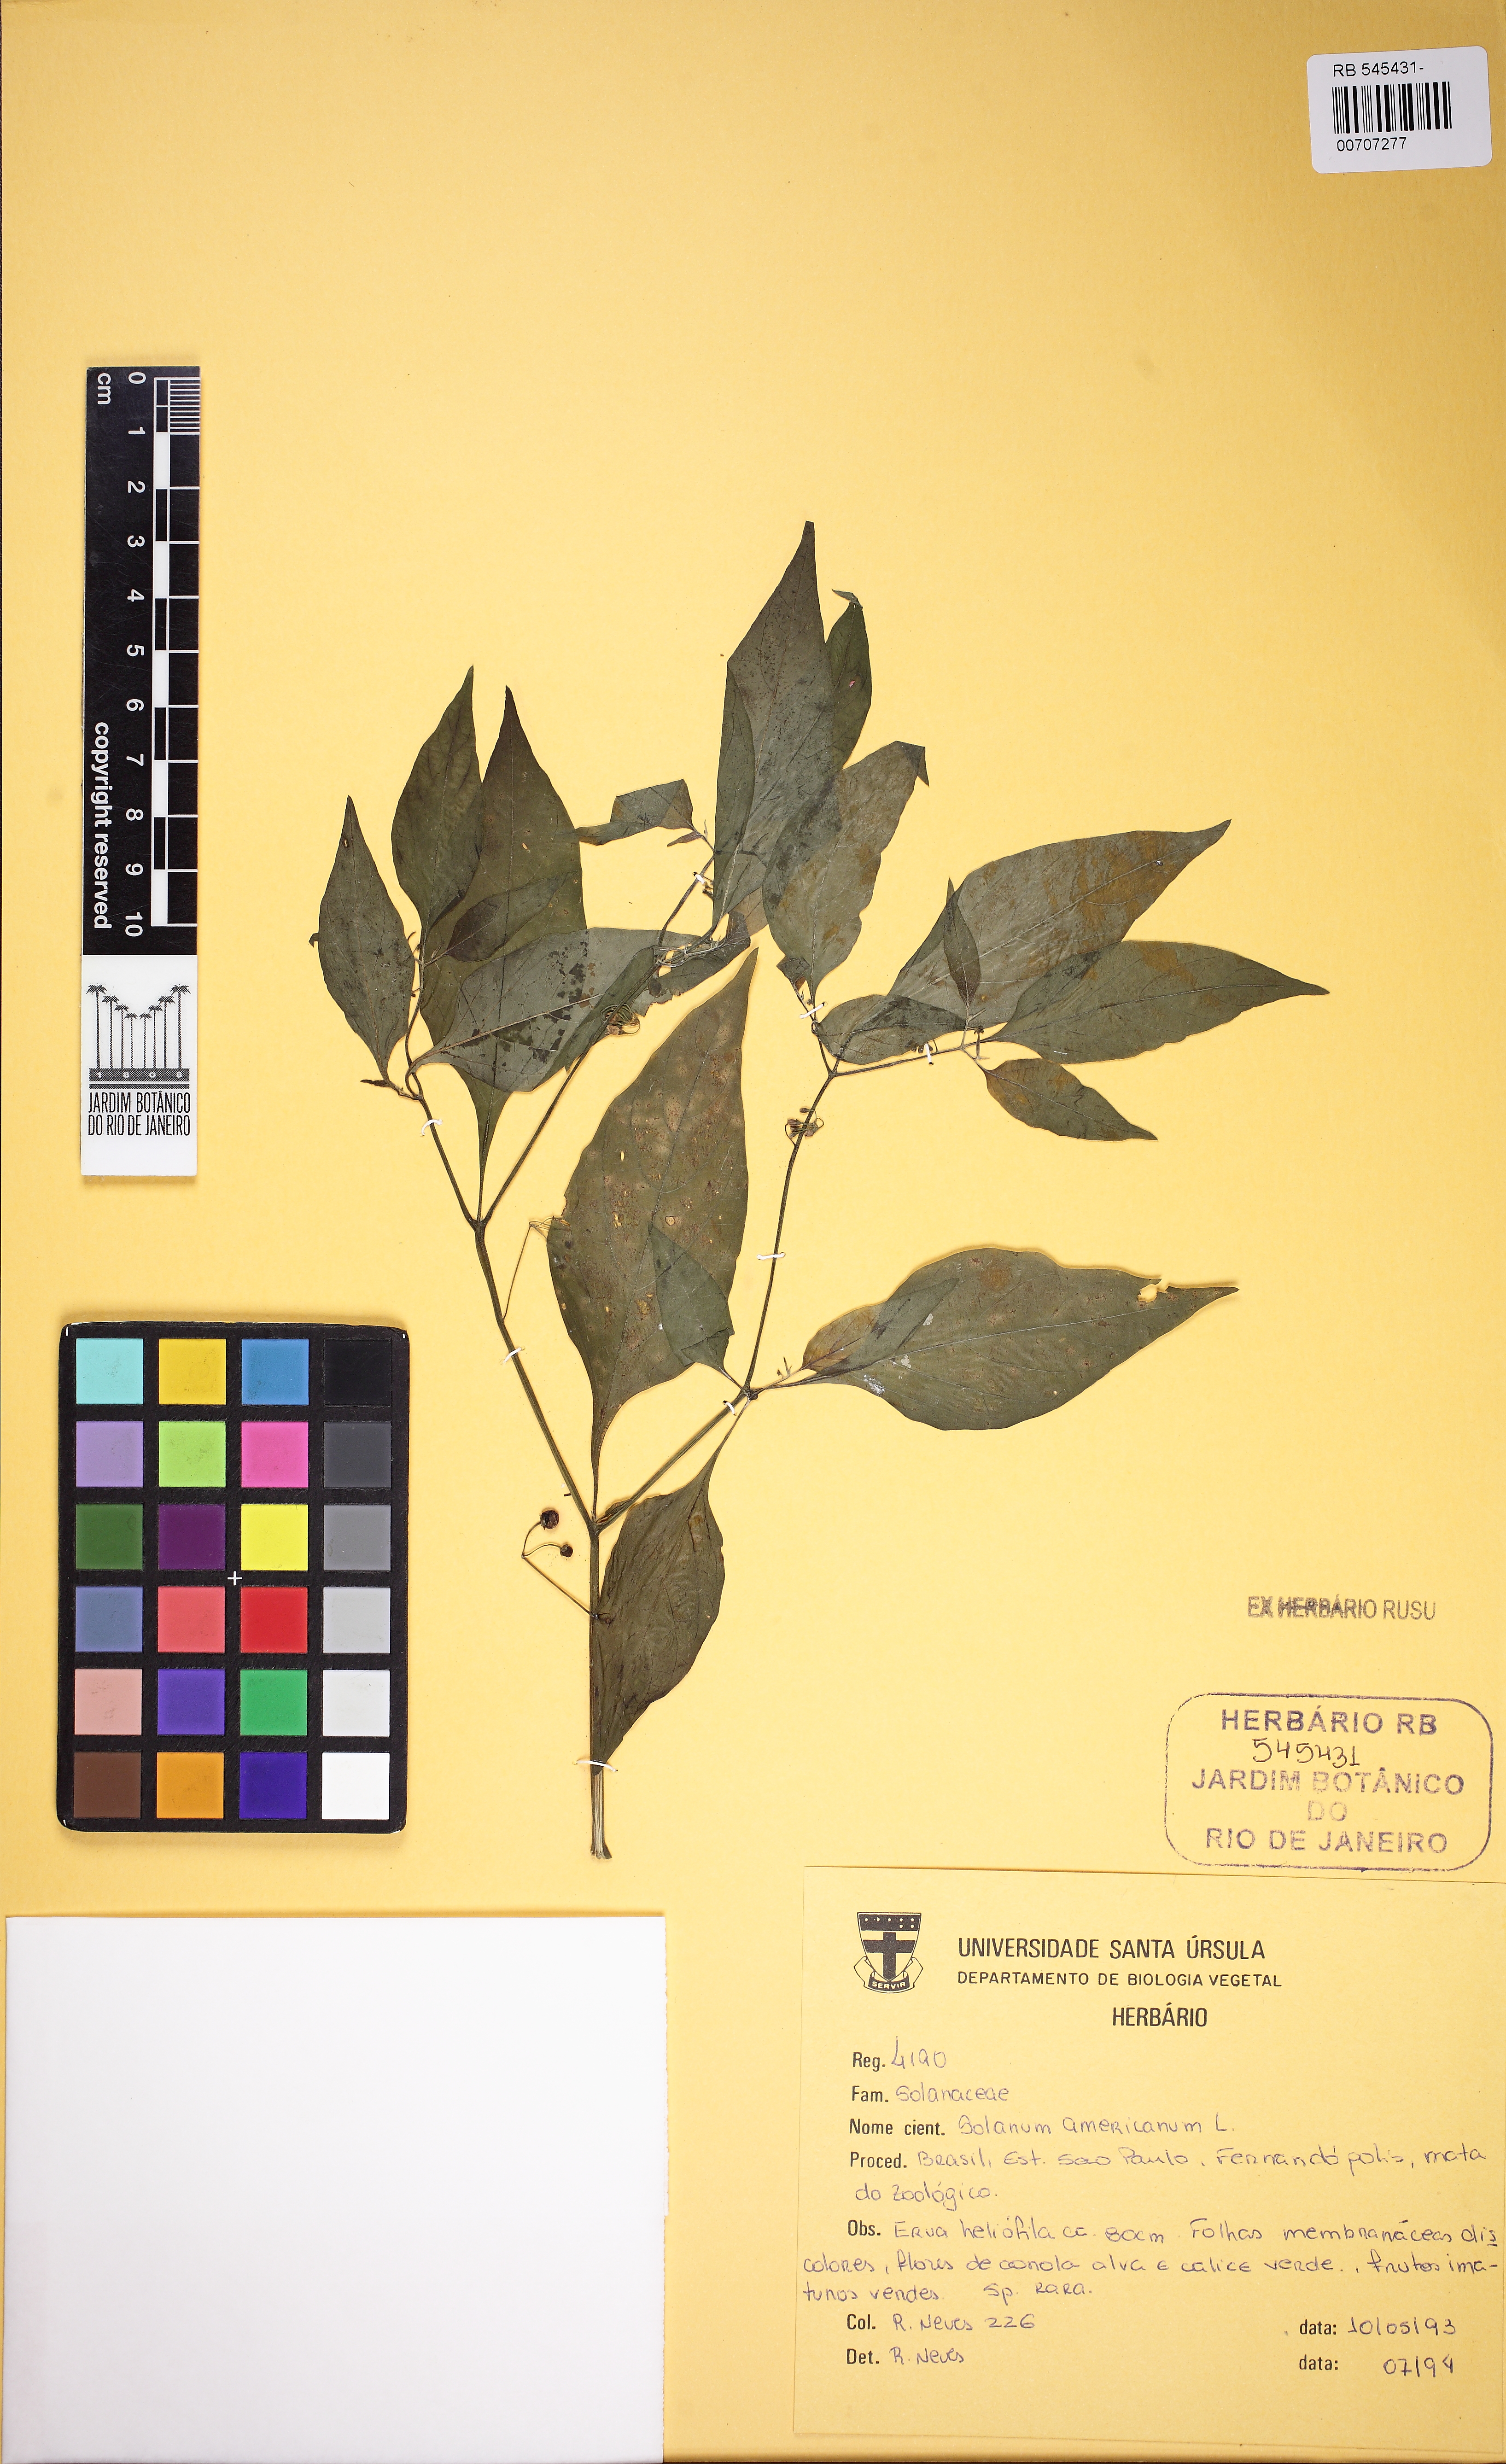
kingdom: Plantae
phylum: Tracheophyta
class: Magnoliopsida
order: Solanales
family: Solanaceae
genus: Solanum
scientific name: Solanum americanum
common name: American black nightshade
